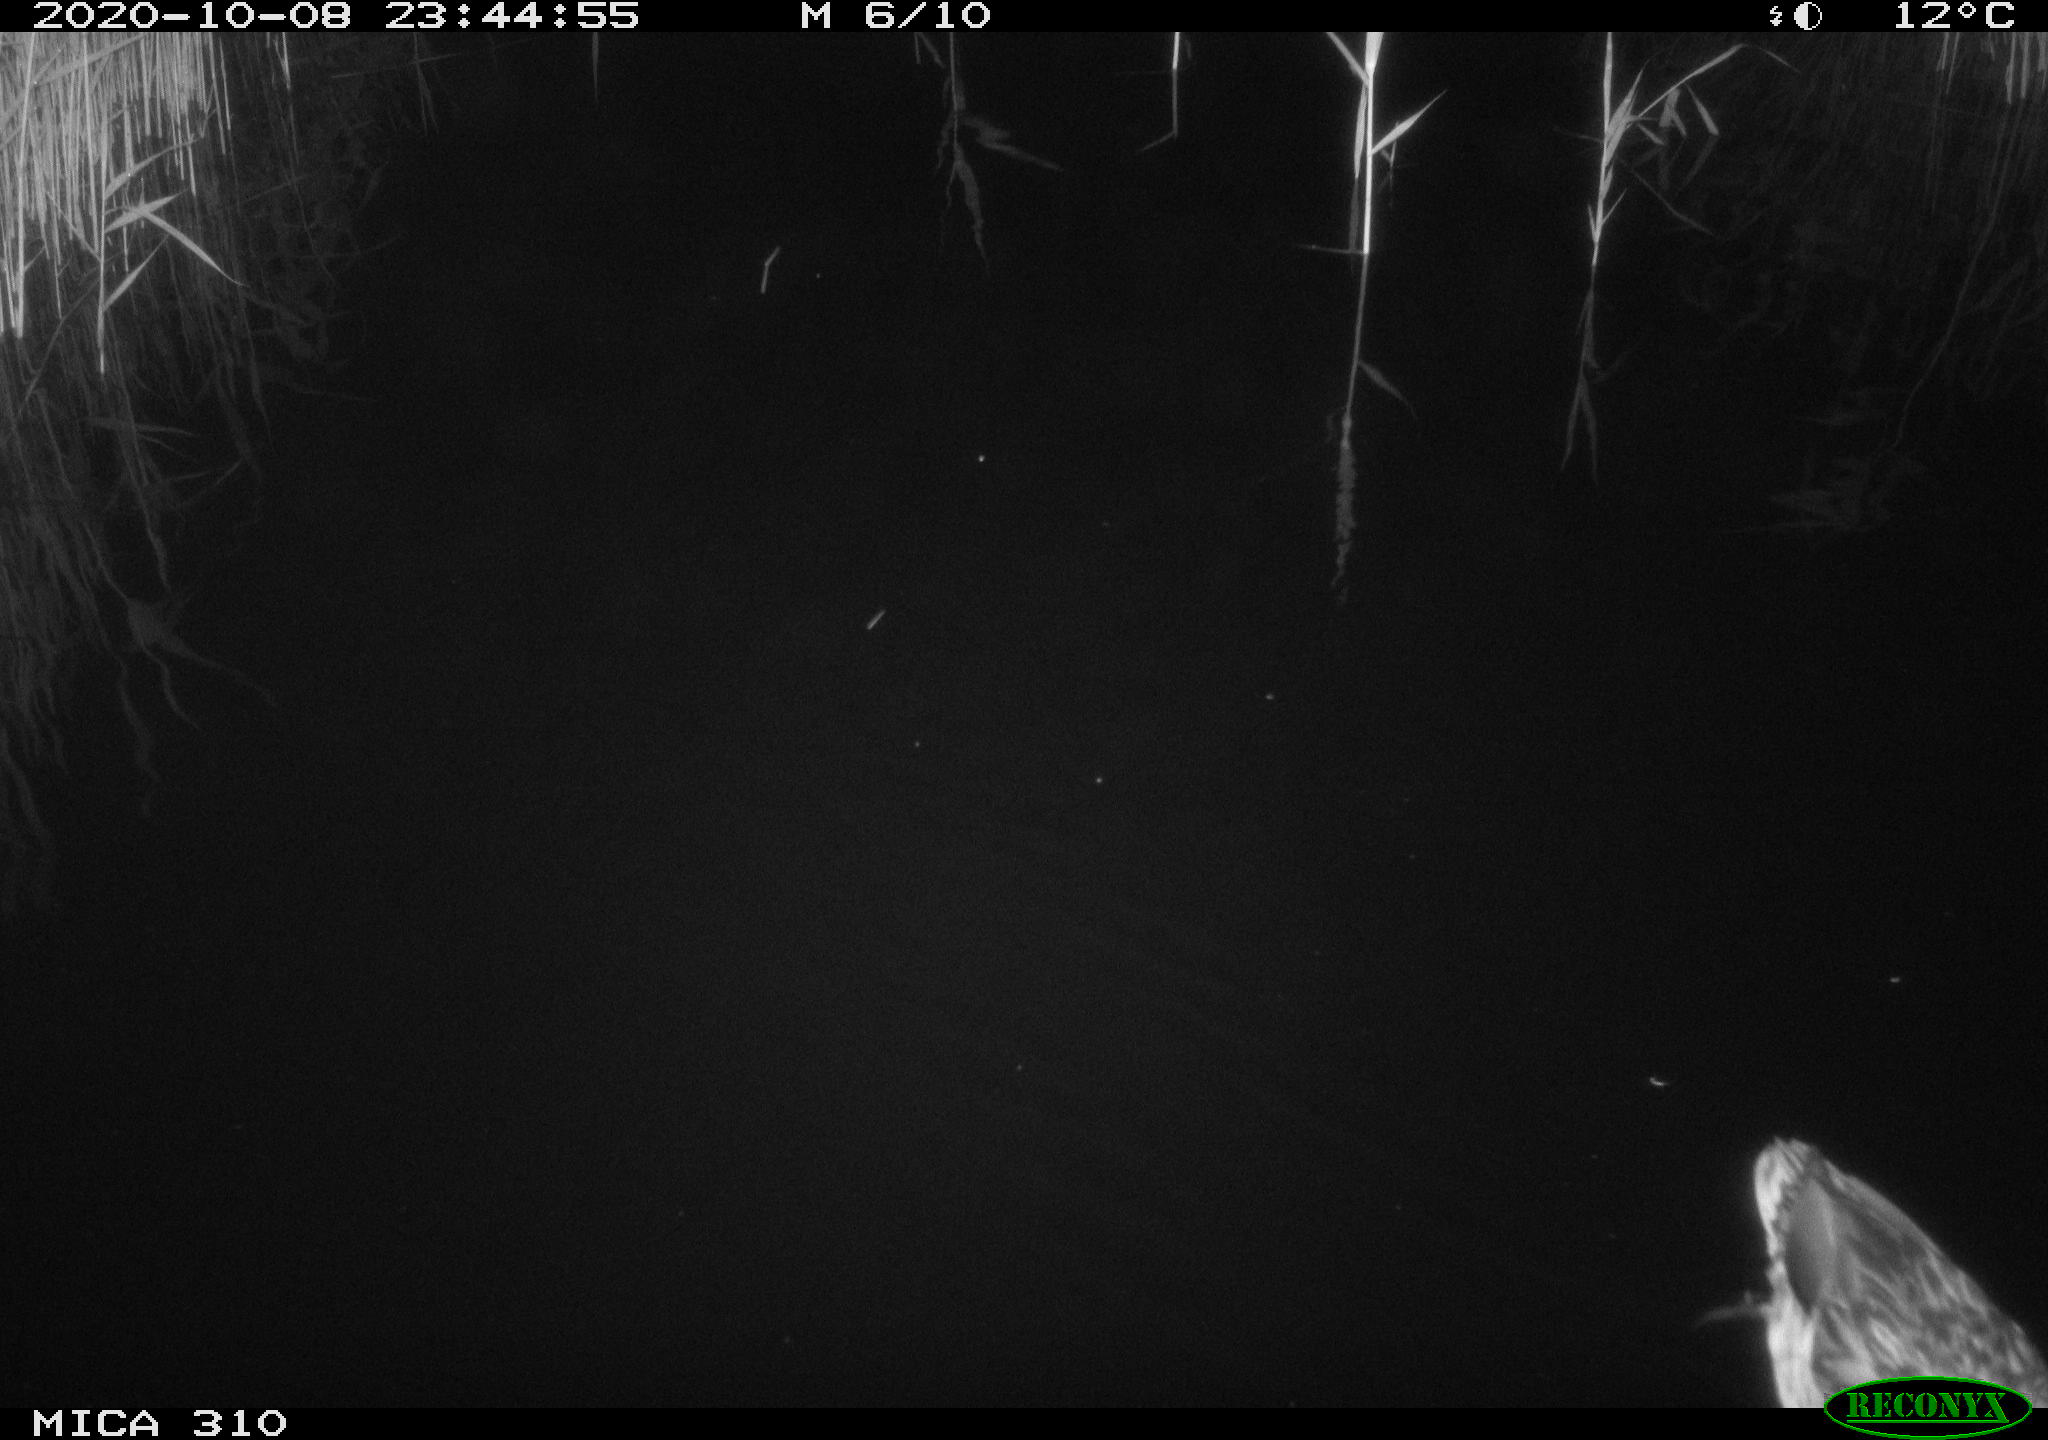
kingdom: Animalia
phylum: Chordata
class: Aves
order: Anseriformes
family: Anatidae
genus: Anas
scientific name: Anas platyrhynchos
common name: Mallard
